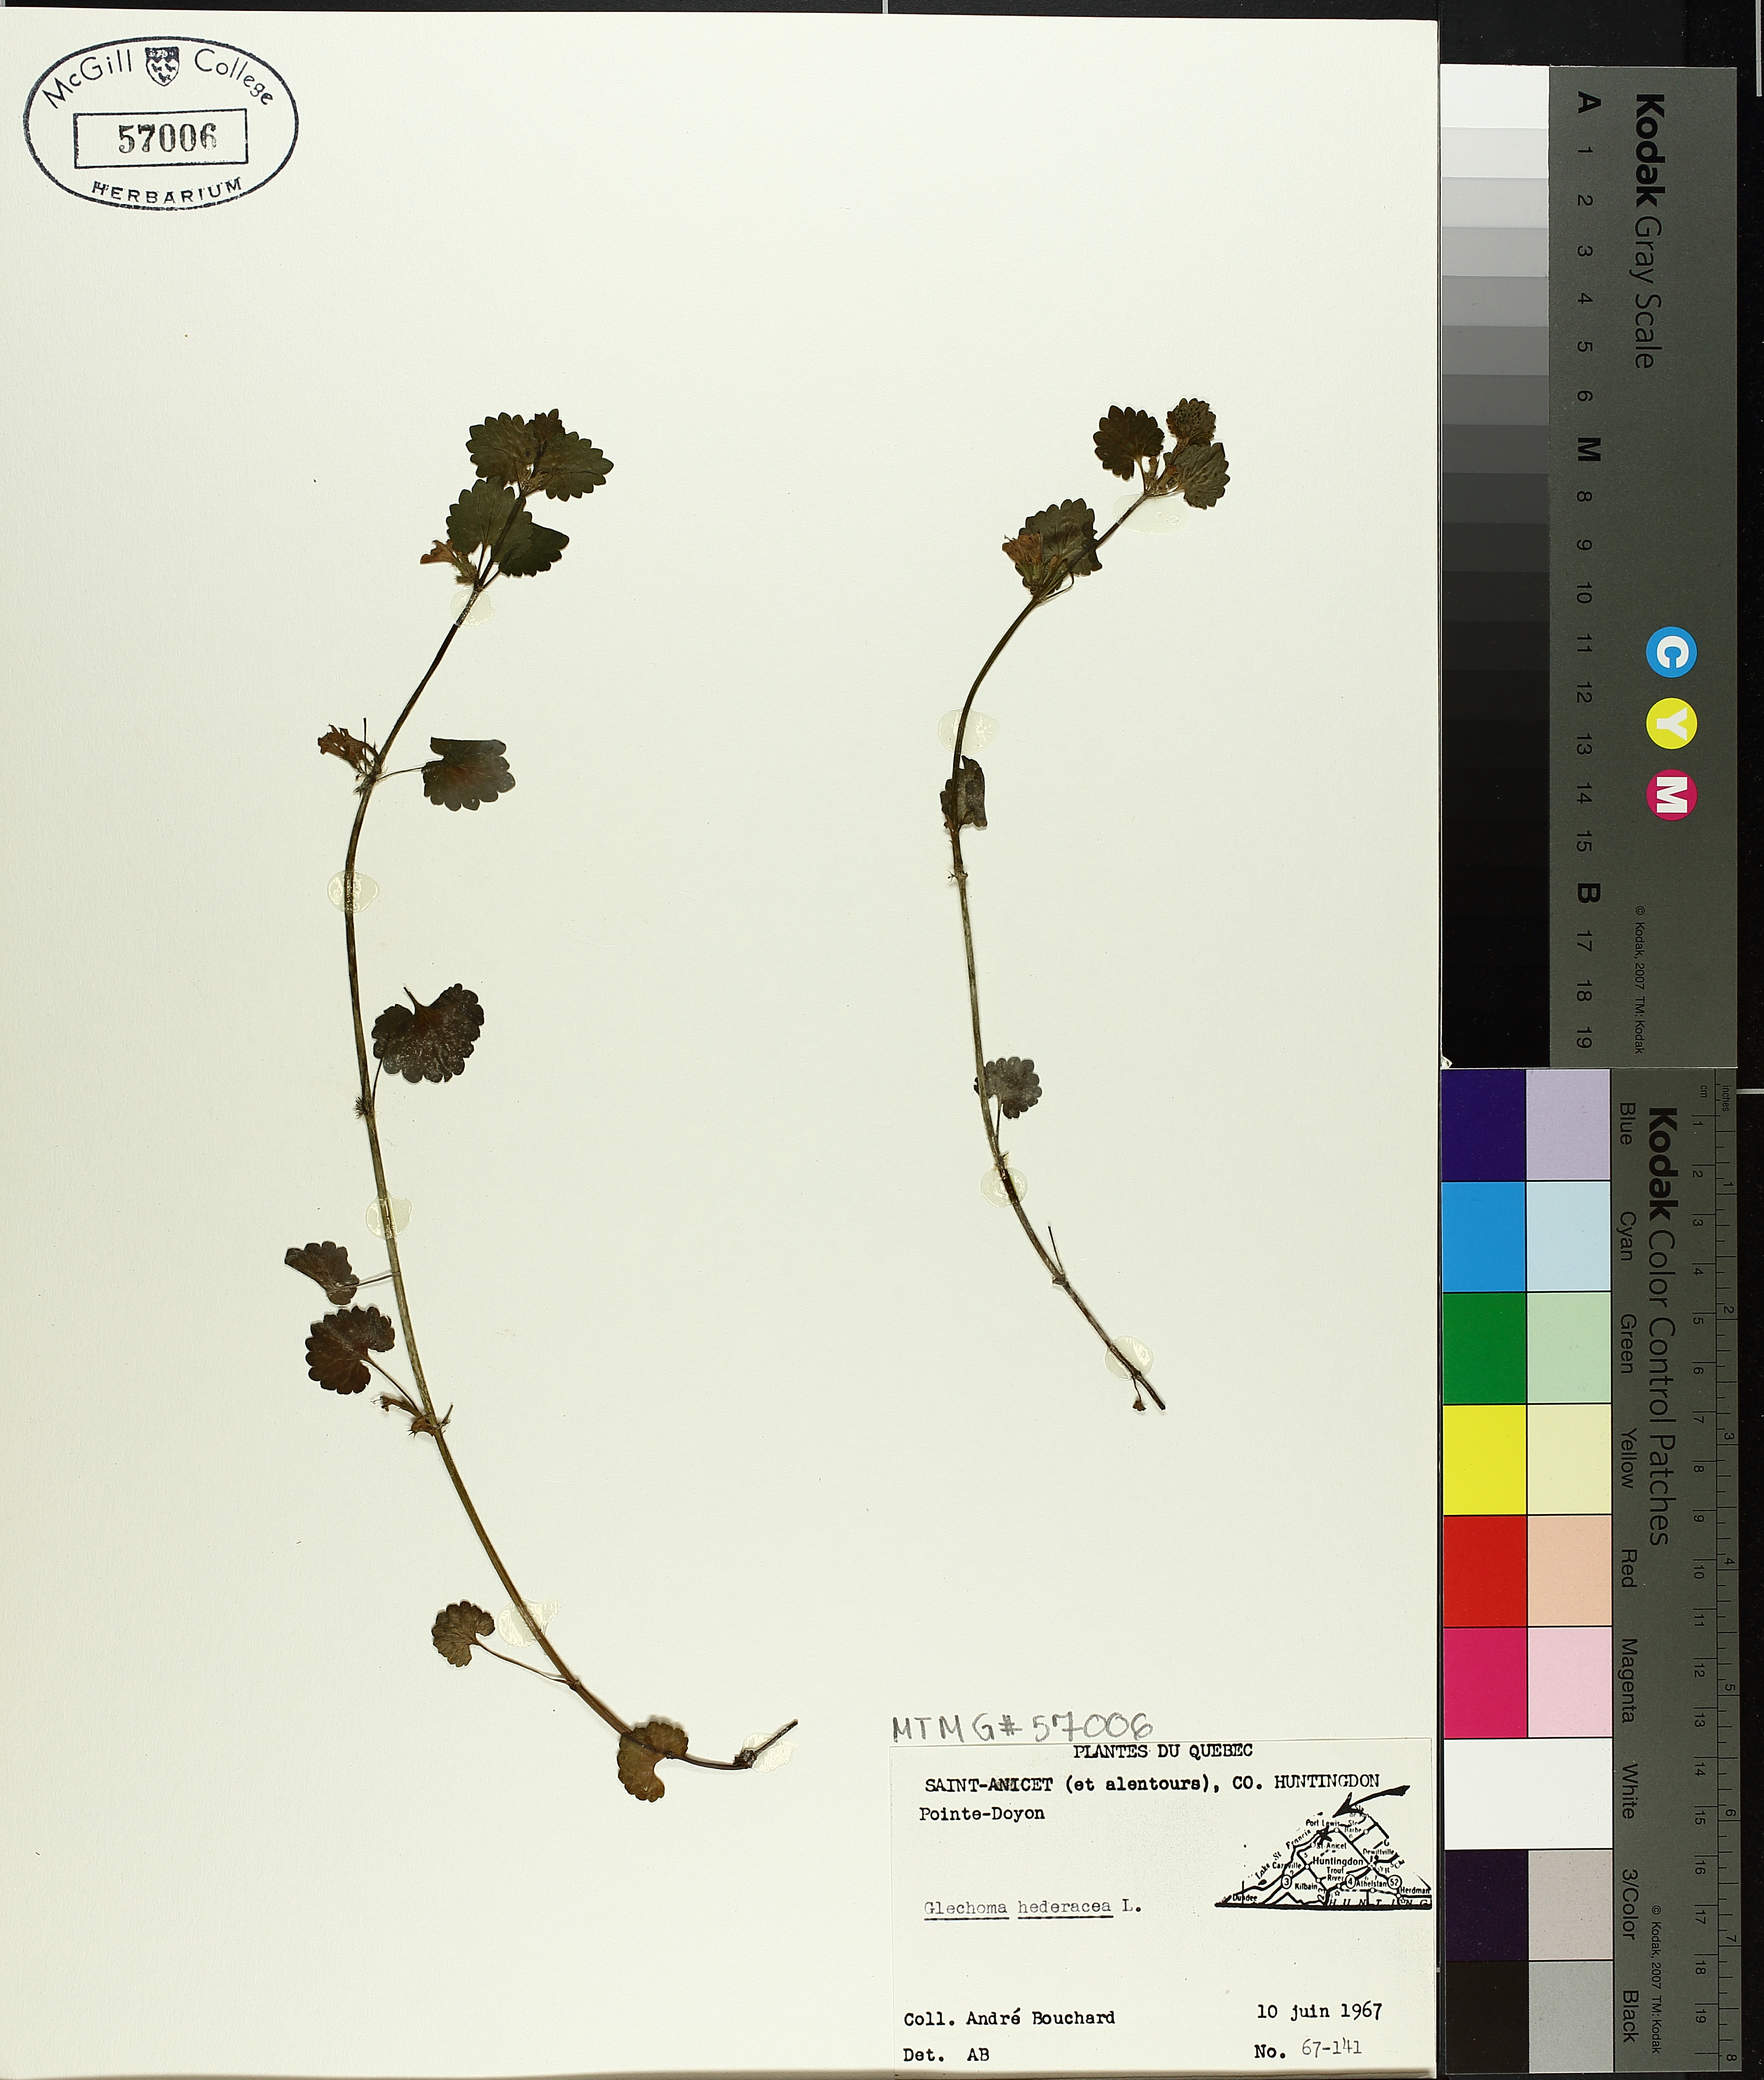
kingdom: Plantae
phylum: Tracheophyta
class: Magnoliopsida
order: Lamiales
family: Lamiaceae
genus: Glechoma
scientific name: Glechoma hederacea
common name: Ground ivy
